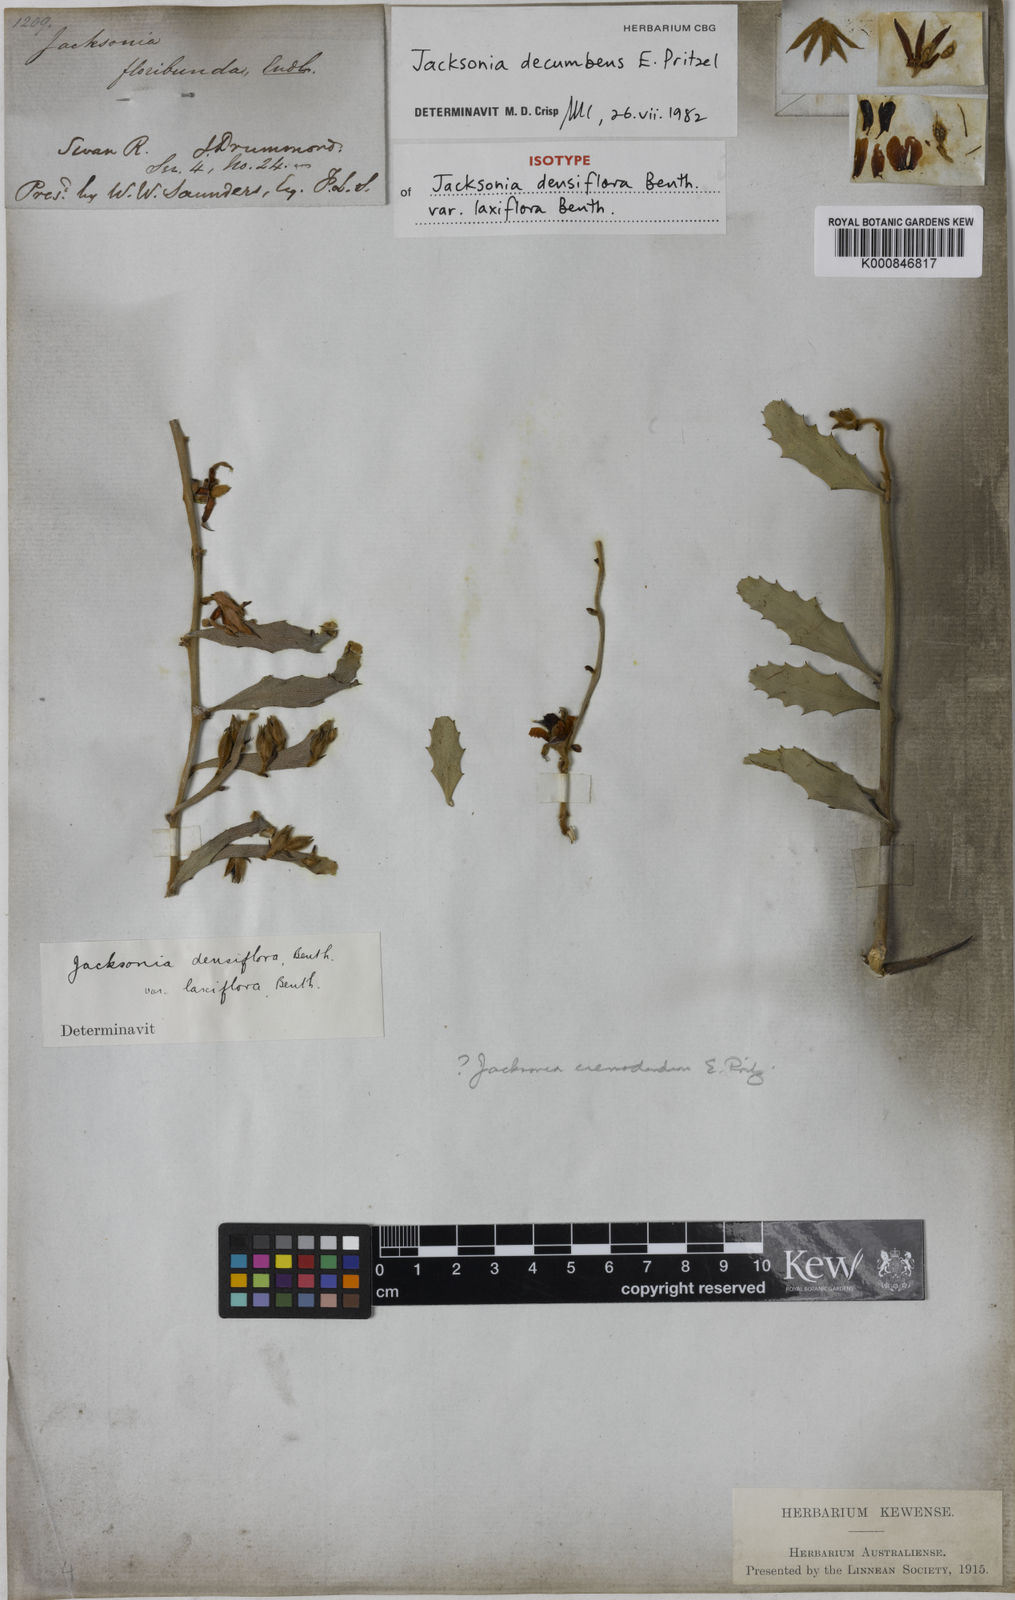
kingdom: Plantae
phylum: Tracheophyta
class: Magnoliopsida
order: Fabales
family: Fabaceae
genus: Jacksonia
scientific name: Jacksonia floribunda
